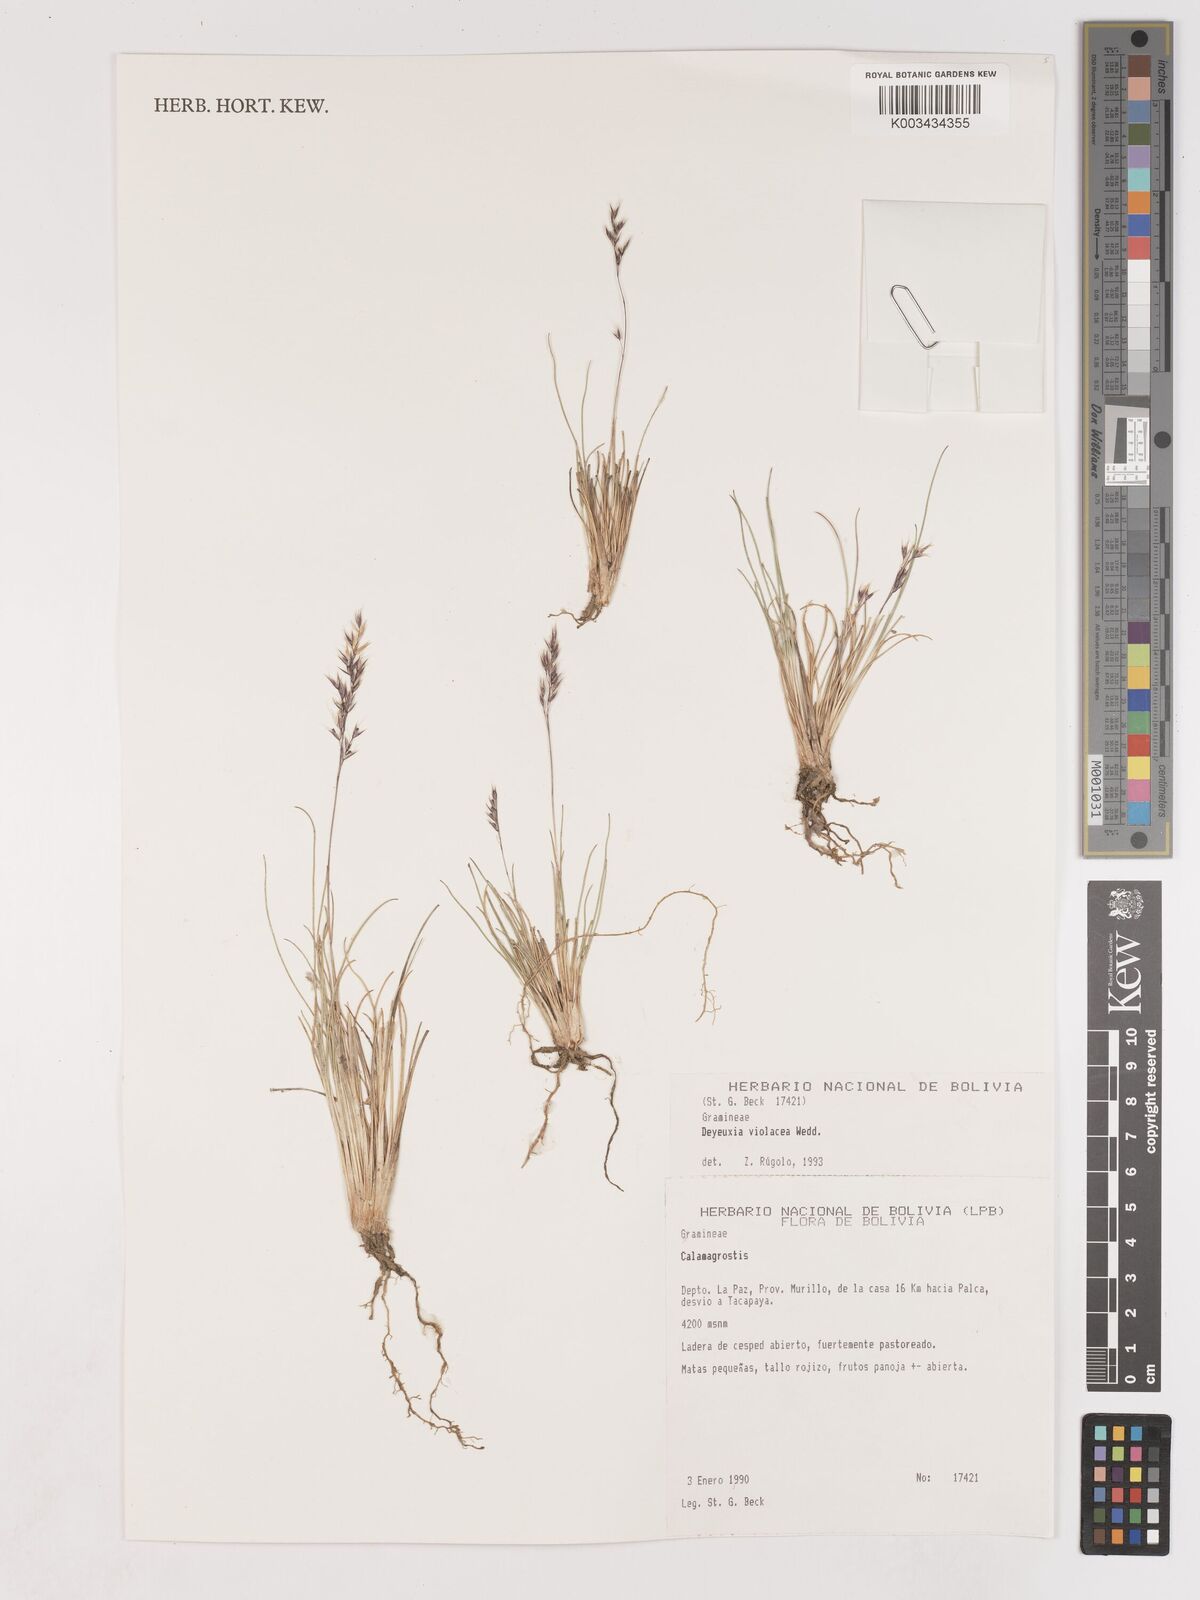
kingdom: Plantae
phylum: Tracheophyta
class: Liliopsida
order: Poales
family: Poaceae
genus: Cinnagrostis
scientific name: Cinnagrostis violacea
